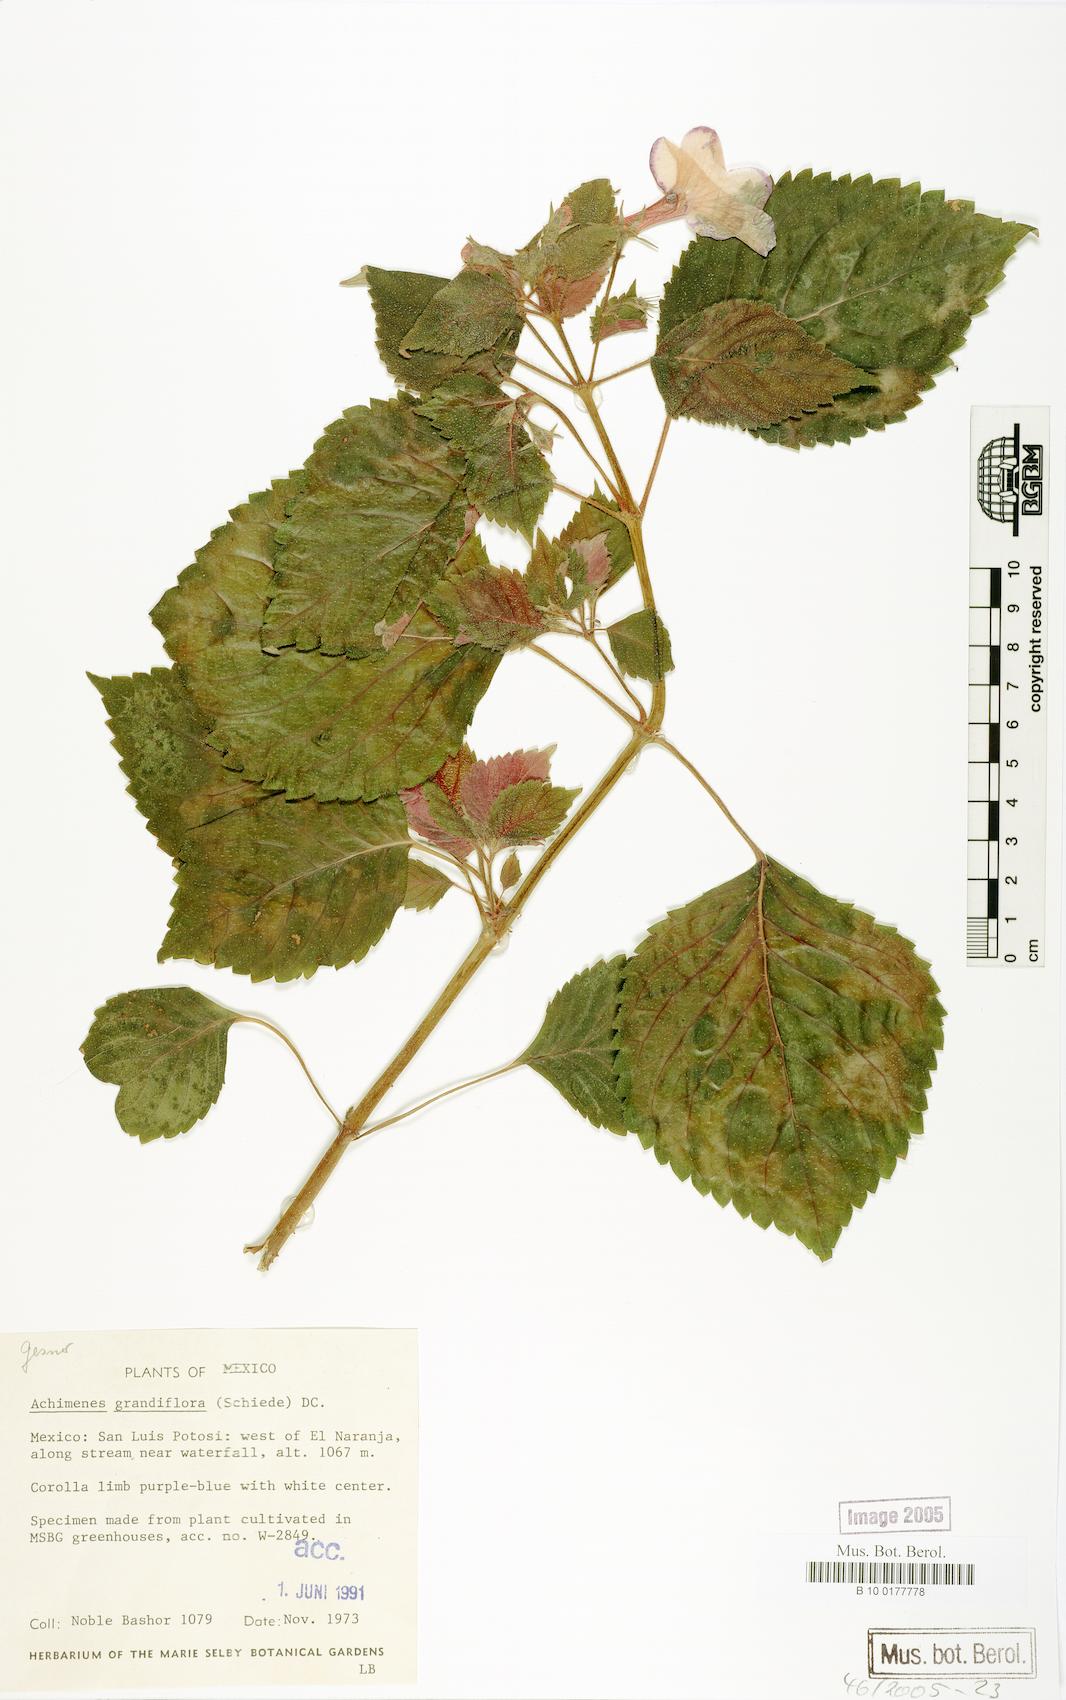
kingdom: Plantae
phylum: Tracheophyta
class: Magnoliopsida
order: Lamiales
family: Gesneriaceae
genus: Achimenes
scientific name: Achimenes grandiflora
